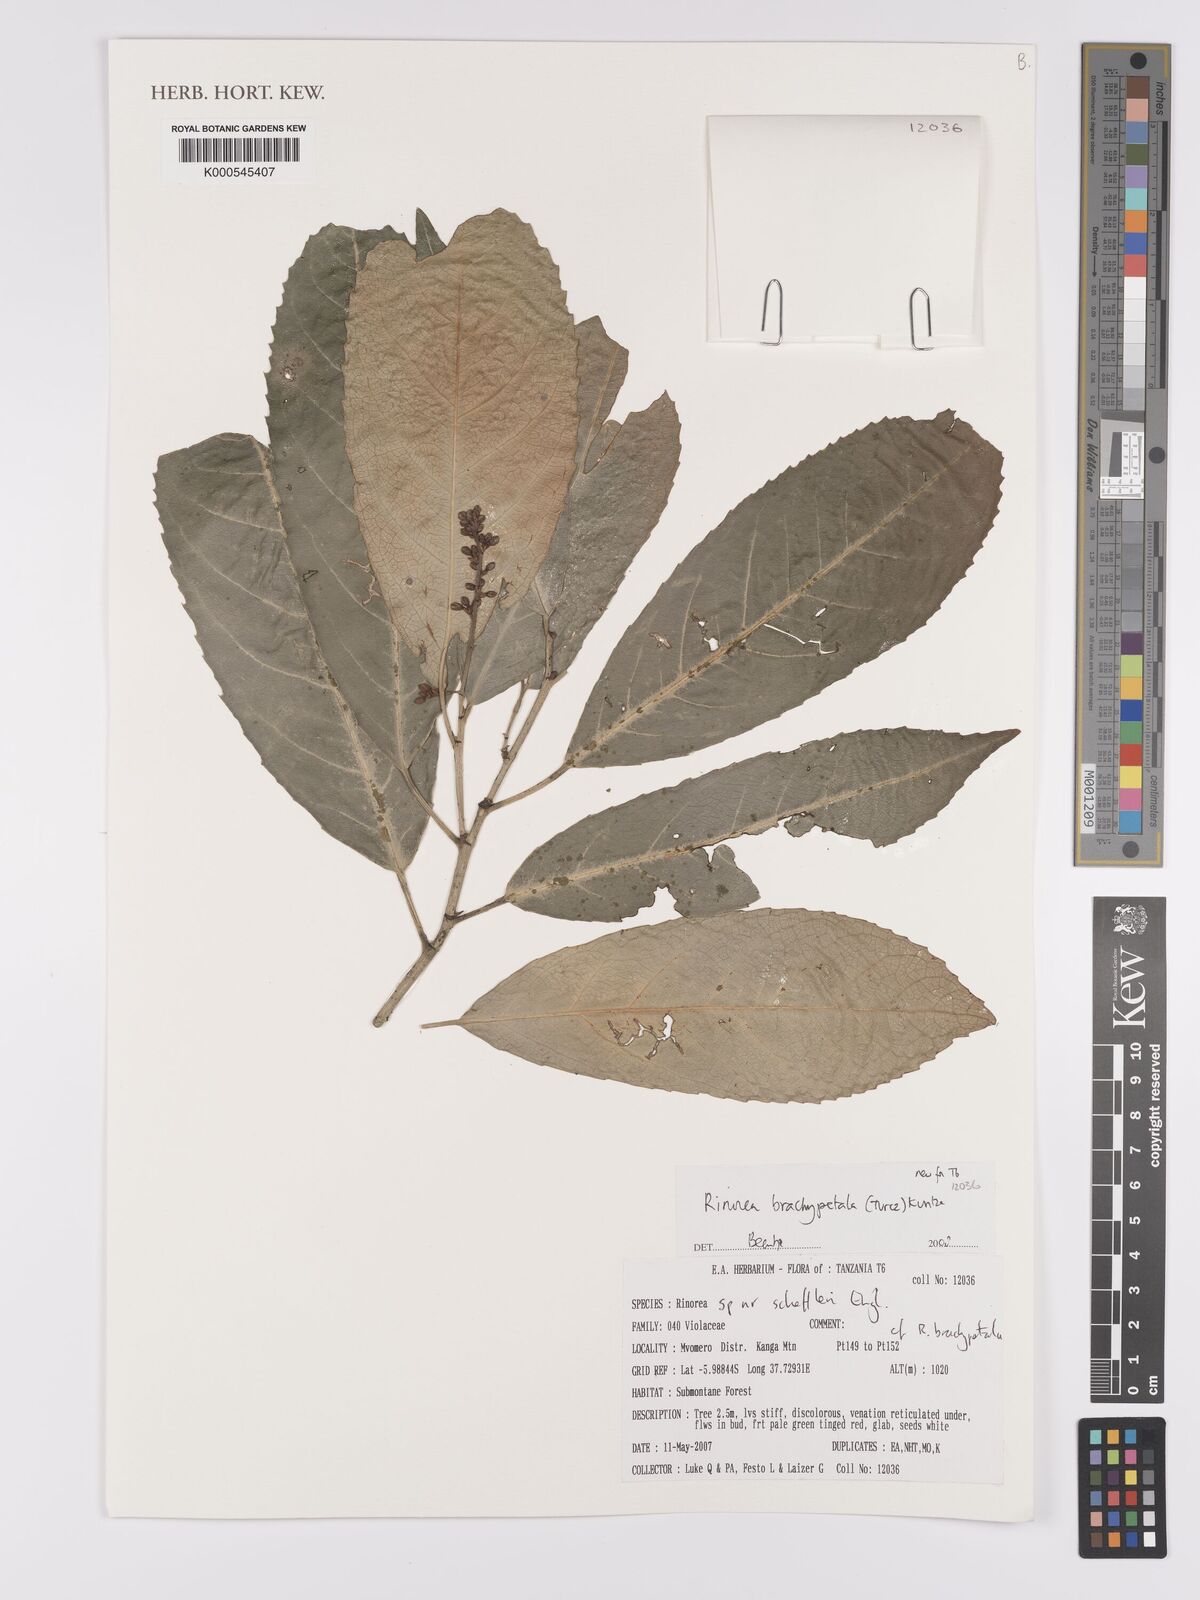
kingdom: Plantae
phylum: Tracheophyta
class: Magnoliopsida
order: Malpighiales
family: Violaceae
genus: Rinorea
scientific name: Rinorea brachypetala
